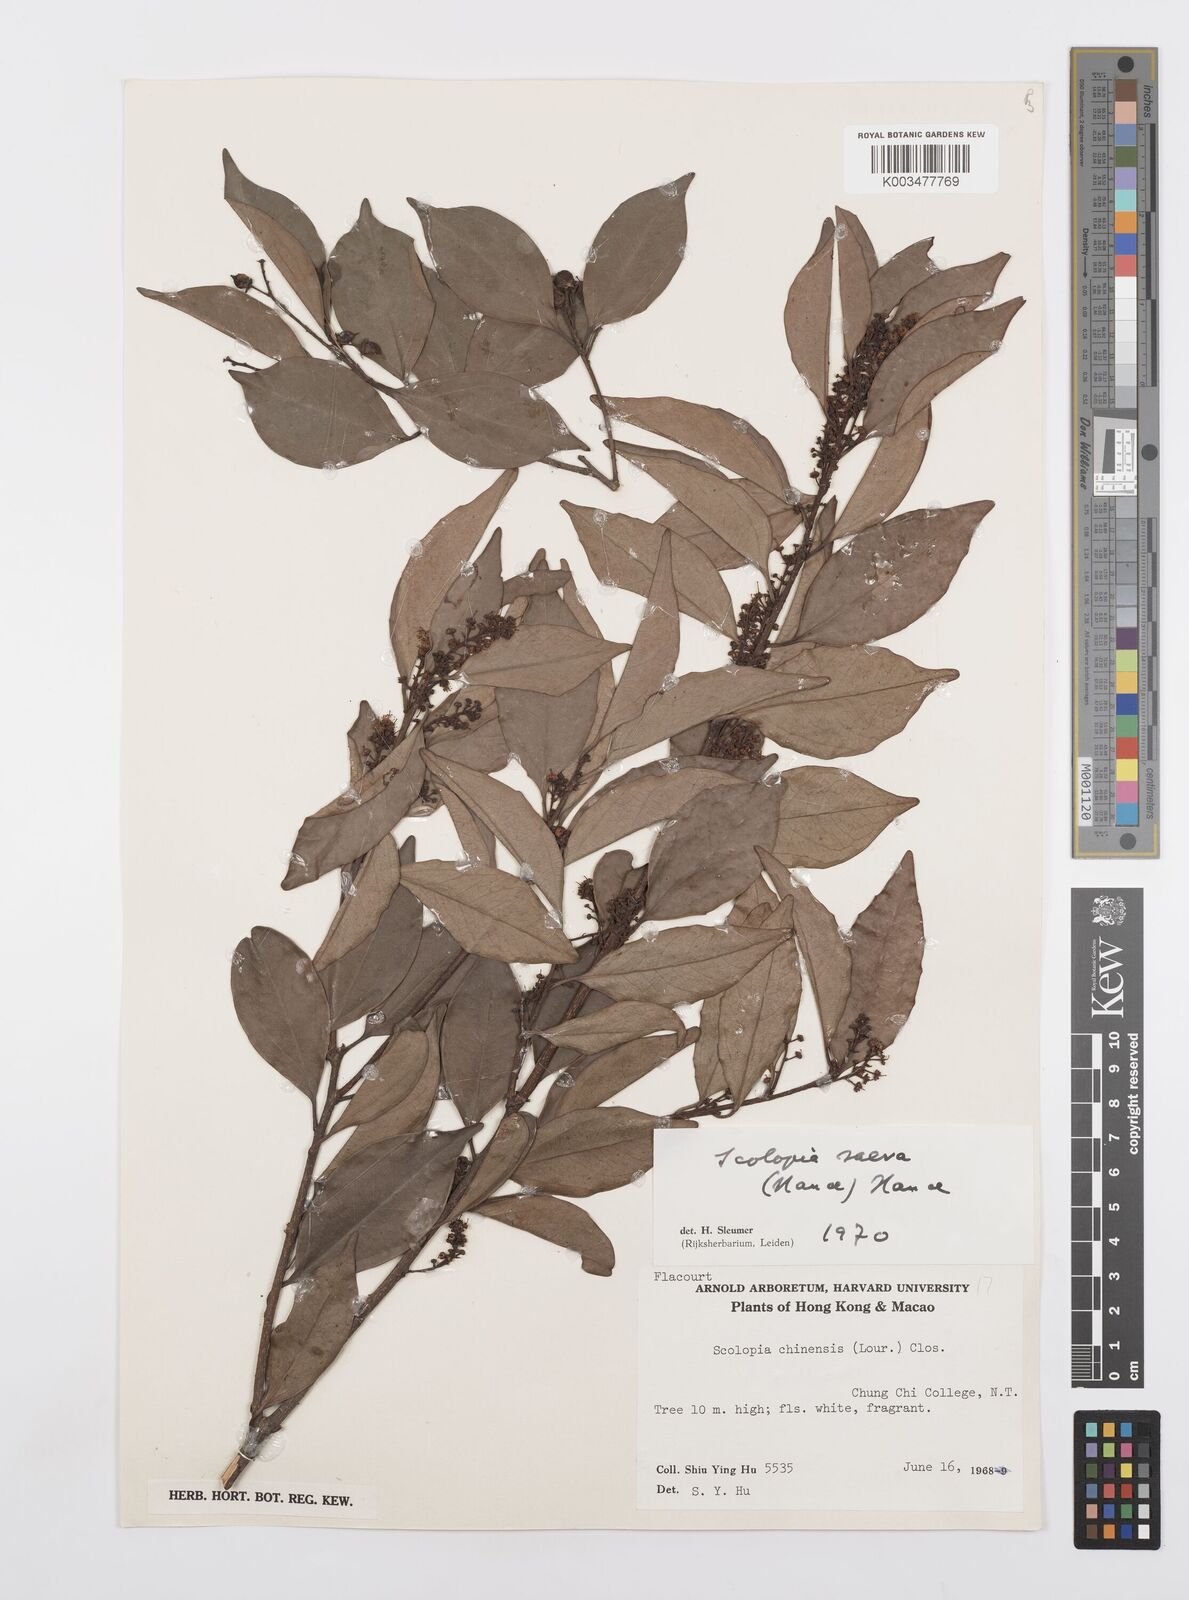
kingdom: Plantae
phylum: Tracheophyta
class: Magnoliopsida
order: Malpighiales
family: Salicaceae
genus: Scolopia
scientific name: Scolopia saeva
